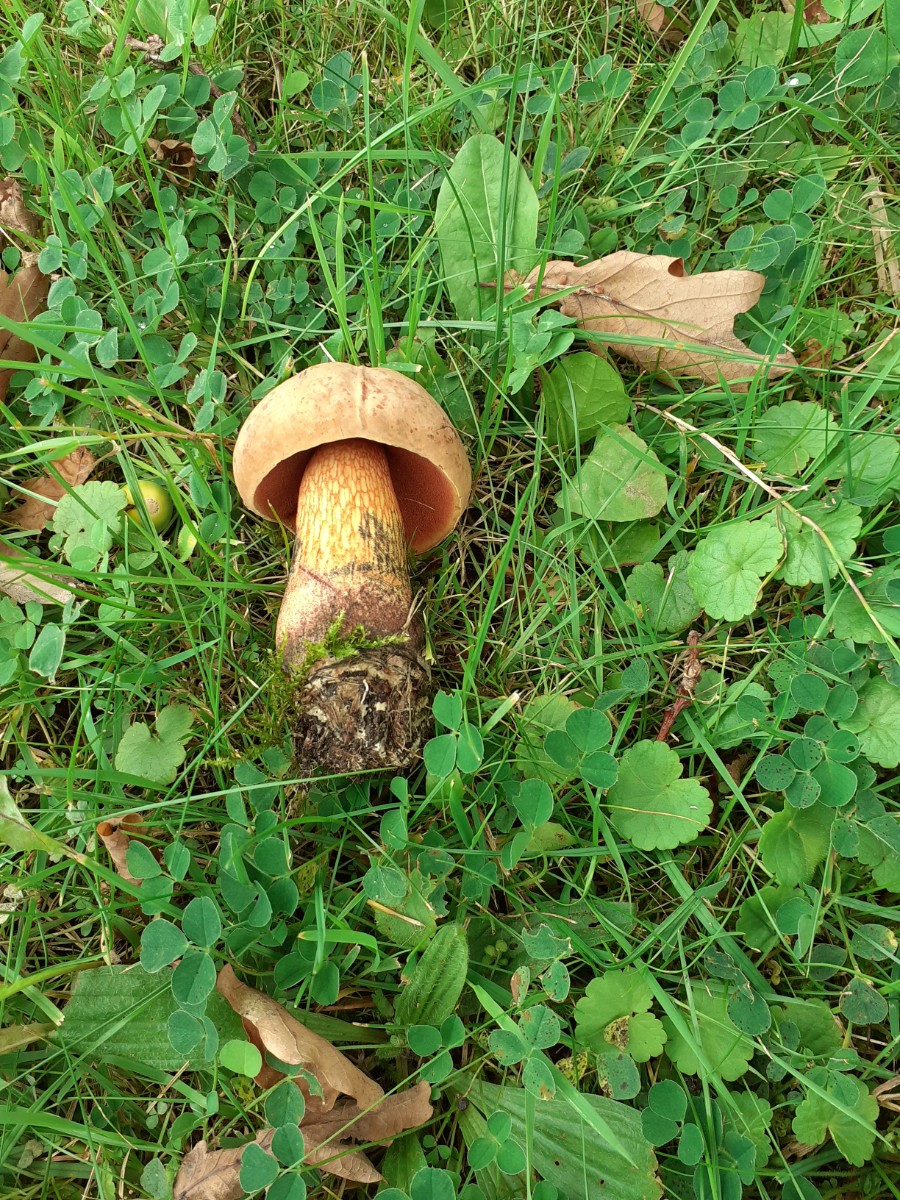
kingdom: Fungi
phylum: Basidiomycota
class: Agaricomycetes
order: Boletales
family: Boletaceae
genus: Suillellus
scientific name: Suillellus luridus
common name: netstokket indigorørhat
